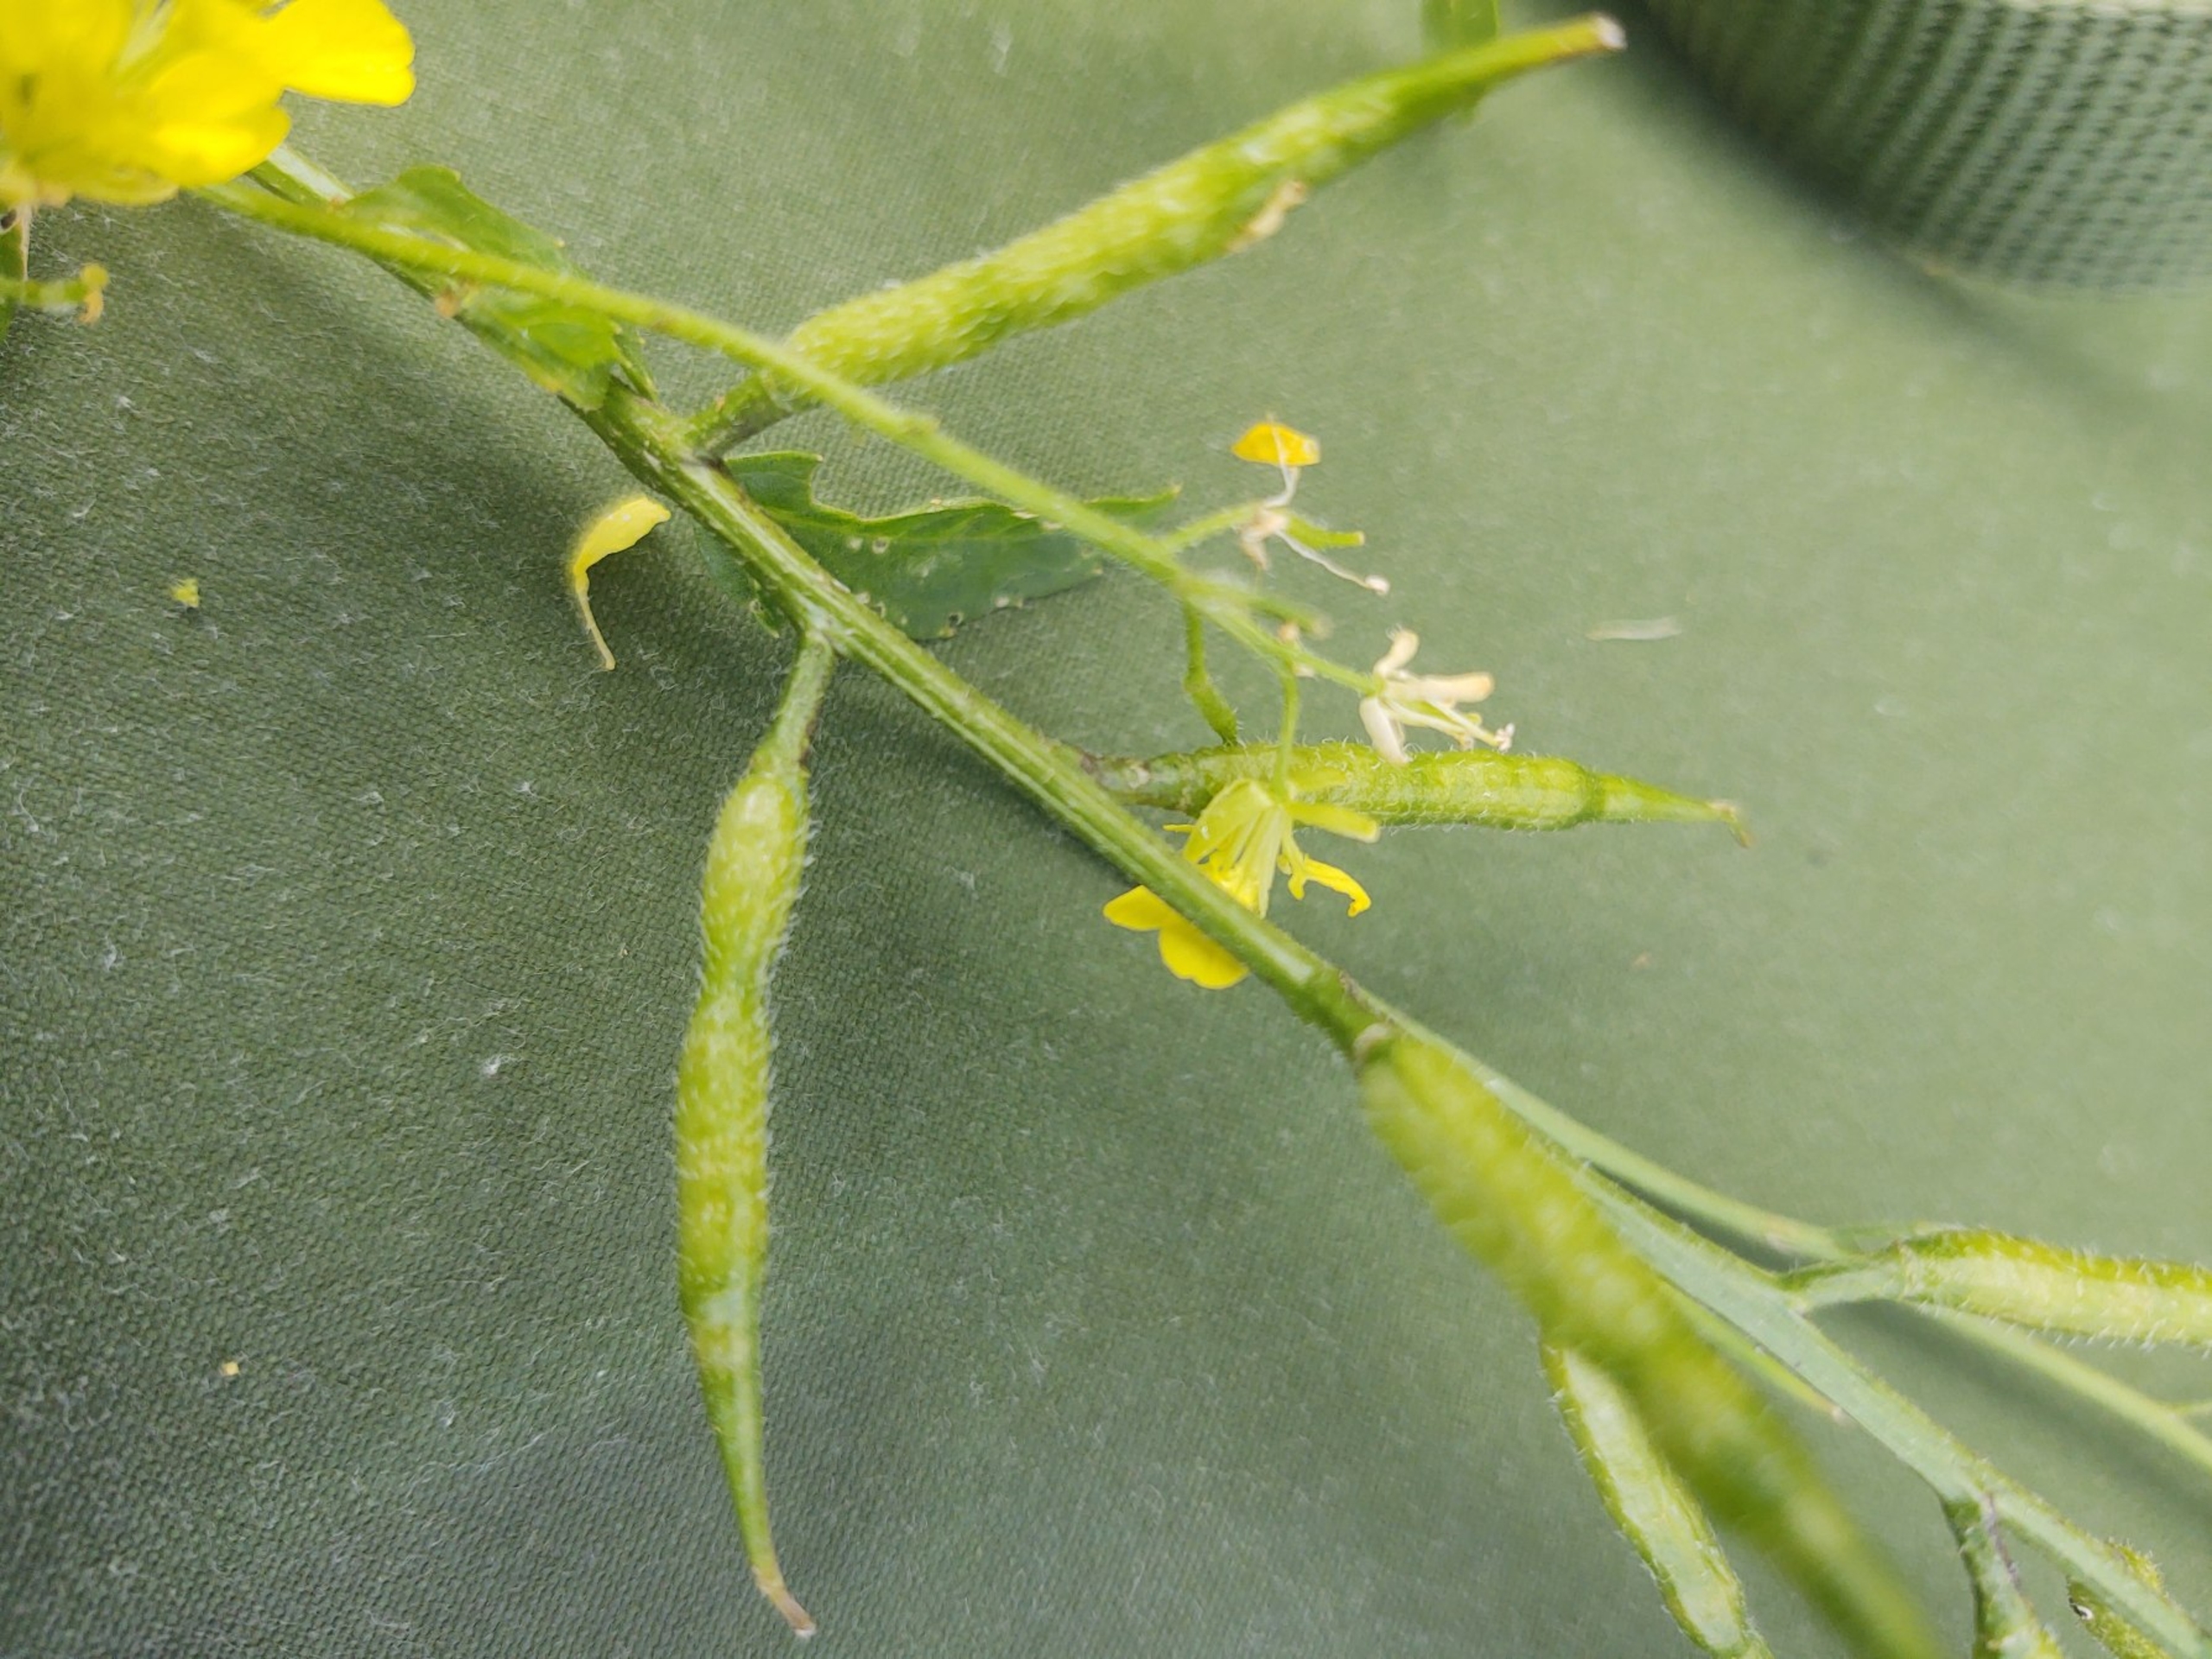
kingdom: Plantae
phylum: Tracheophyta
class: Magnoliopsida
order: Brassicales
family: Brassicaceae
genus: Sinapis
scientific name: Sinapis arvensis
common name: Stivhåret ager-sennep
